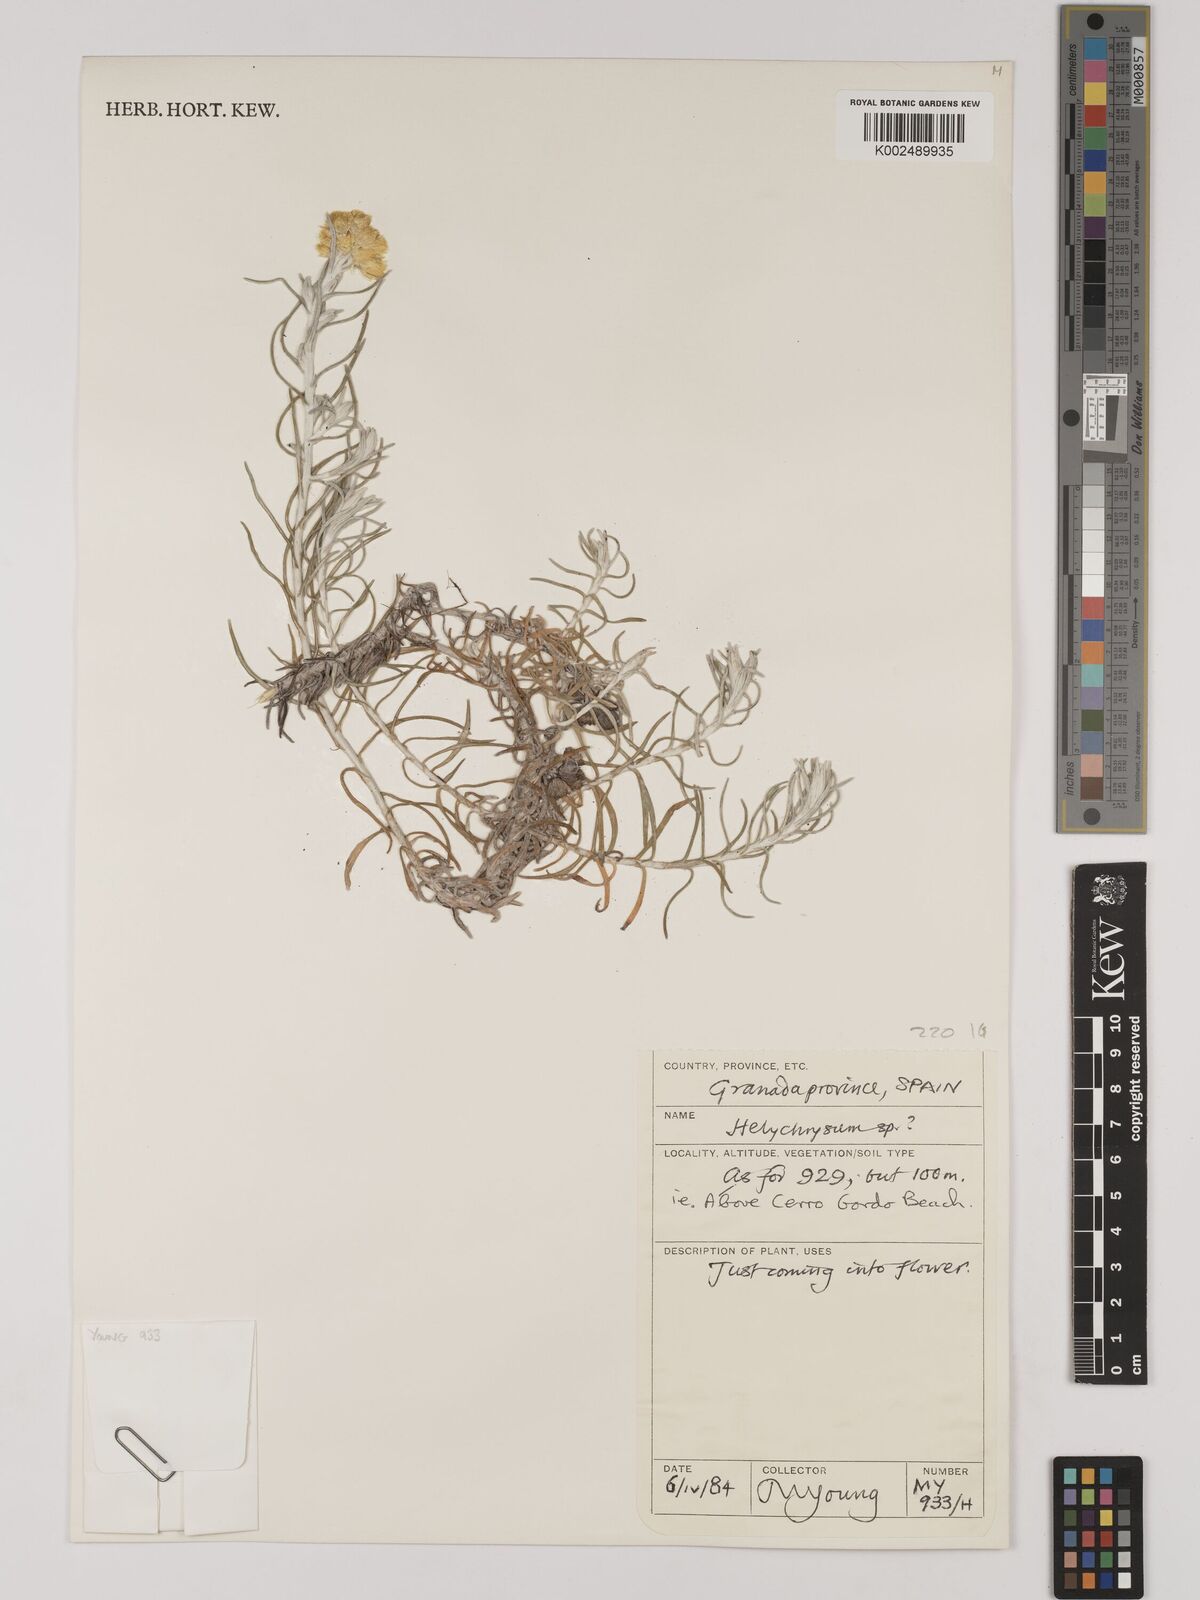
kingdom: Plantae
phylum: Tracheophyta
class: Magnoliopsida
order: Asterales
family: Asteraceae
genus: Helichrysum
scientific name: Helichrysum
